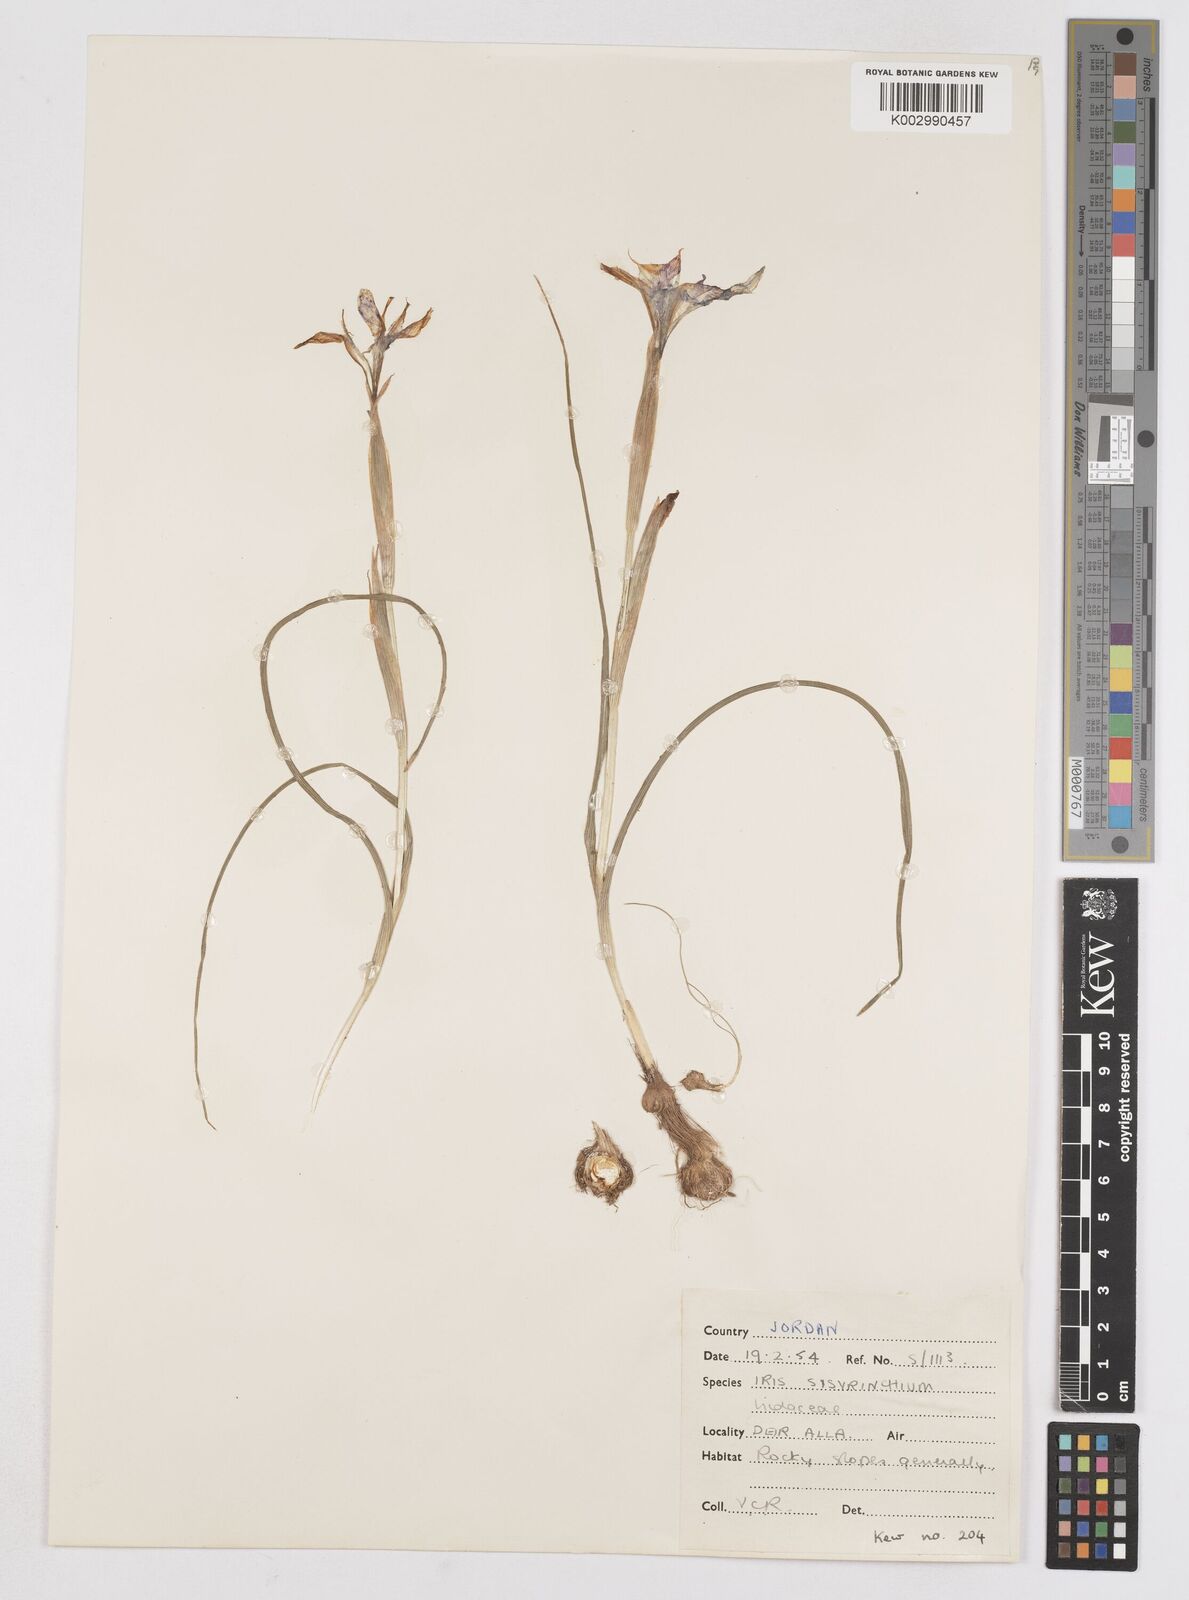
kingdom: Plantae
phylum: Tracheophyta
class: Liliopsida
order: Asparagales
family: Iridaceae
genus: Moraea
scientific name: Moraea sisyrinchium
